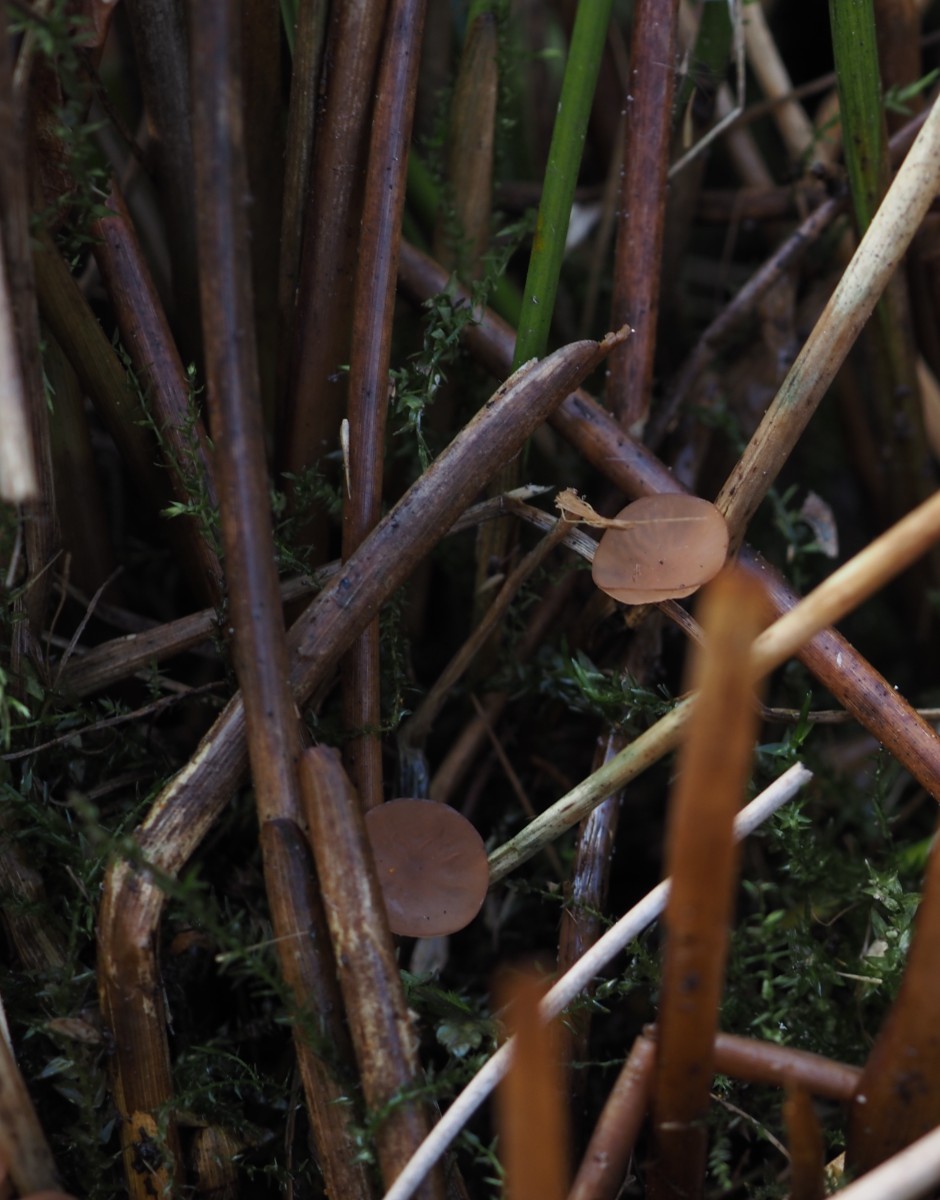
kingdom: Fungi
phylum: Ascomycota
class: Leotiomycetes
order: Helotiales
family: Sclerotiniaceae
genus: Myriosclerotinia
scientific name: Myriosclerotinia curreyana
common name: siv-knoldskive
